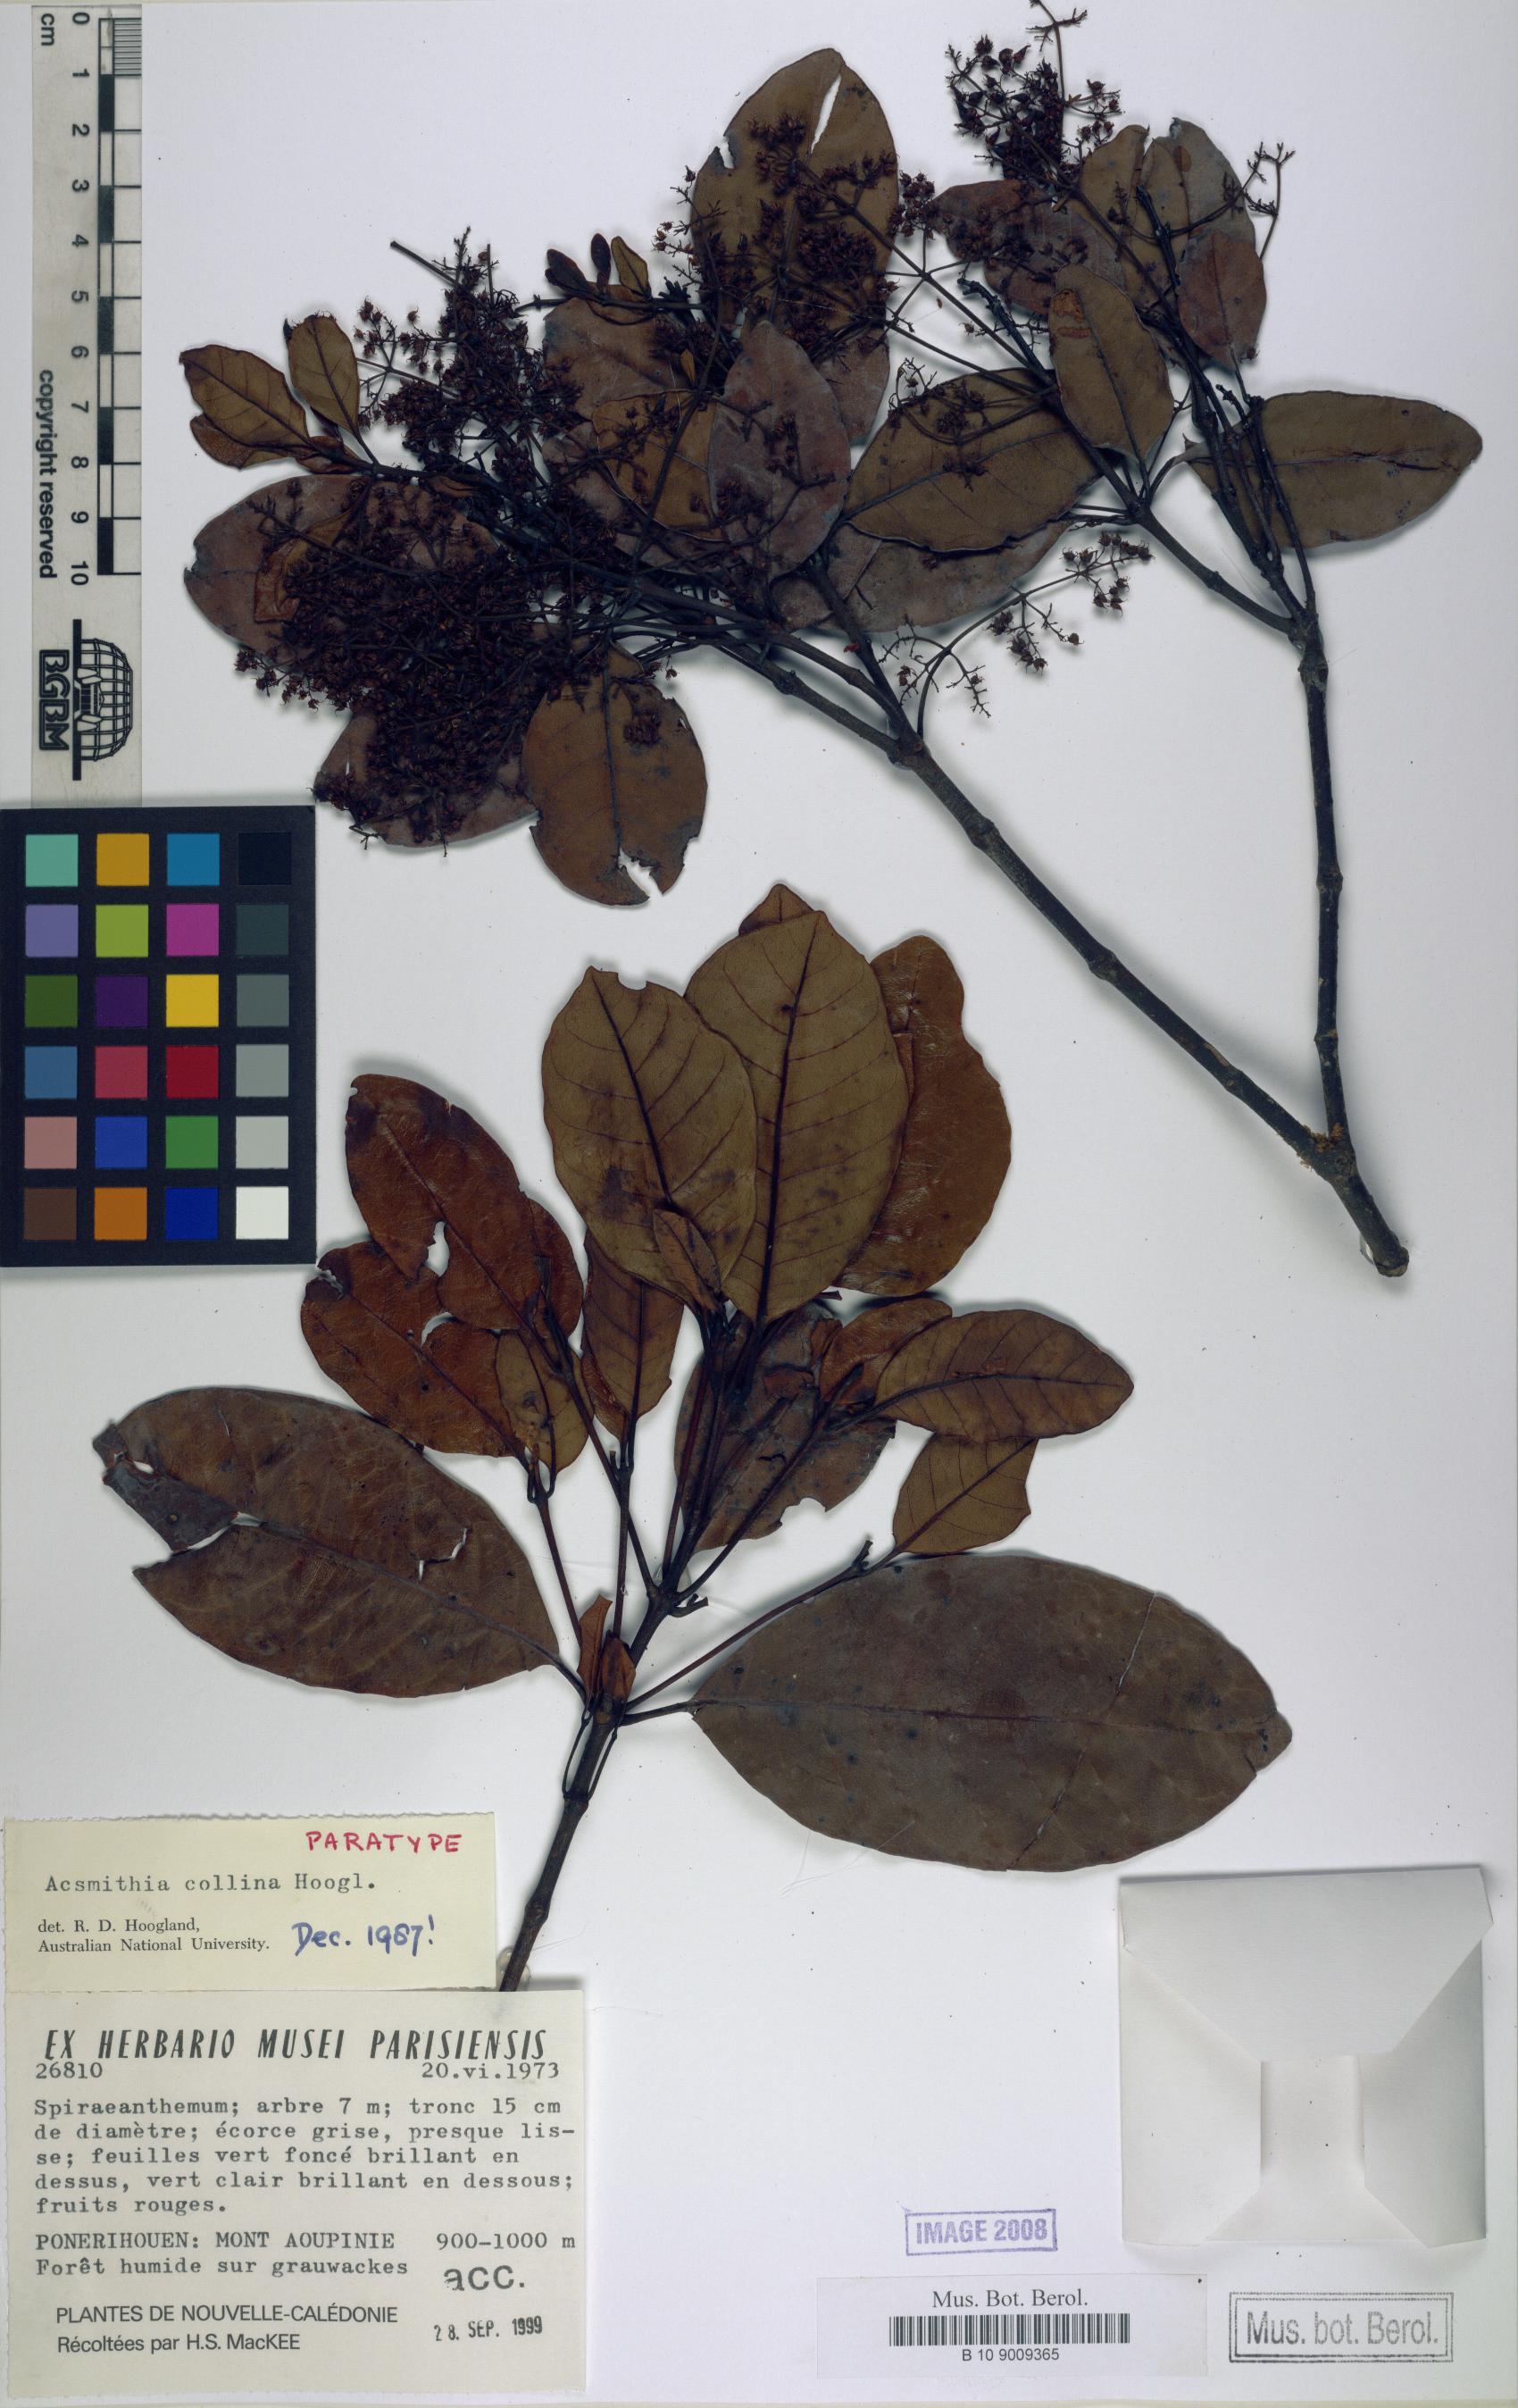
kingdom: Plantae
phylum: Tracheophyta
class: Magnoliopsida
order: Oxalidales
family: Cunoniaceae
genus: Spiraeanthemum
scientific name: Spiraeanthemum collinum
